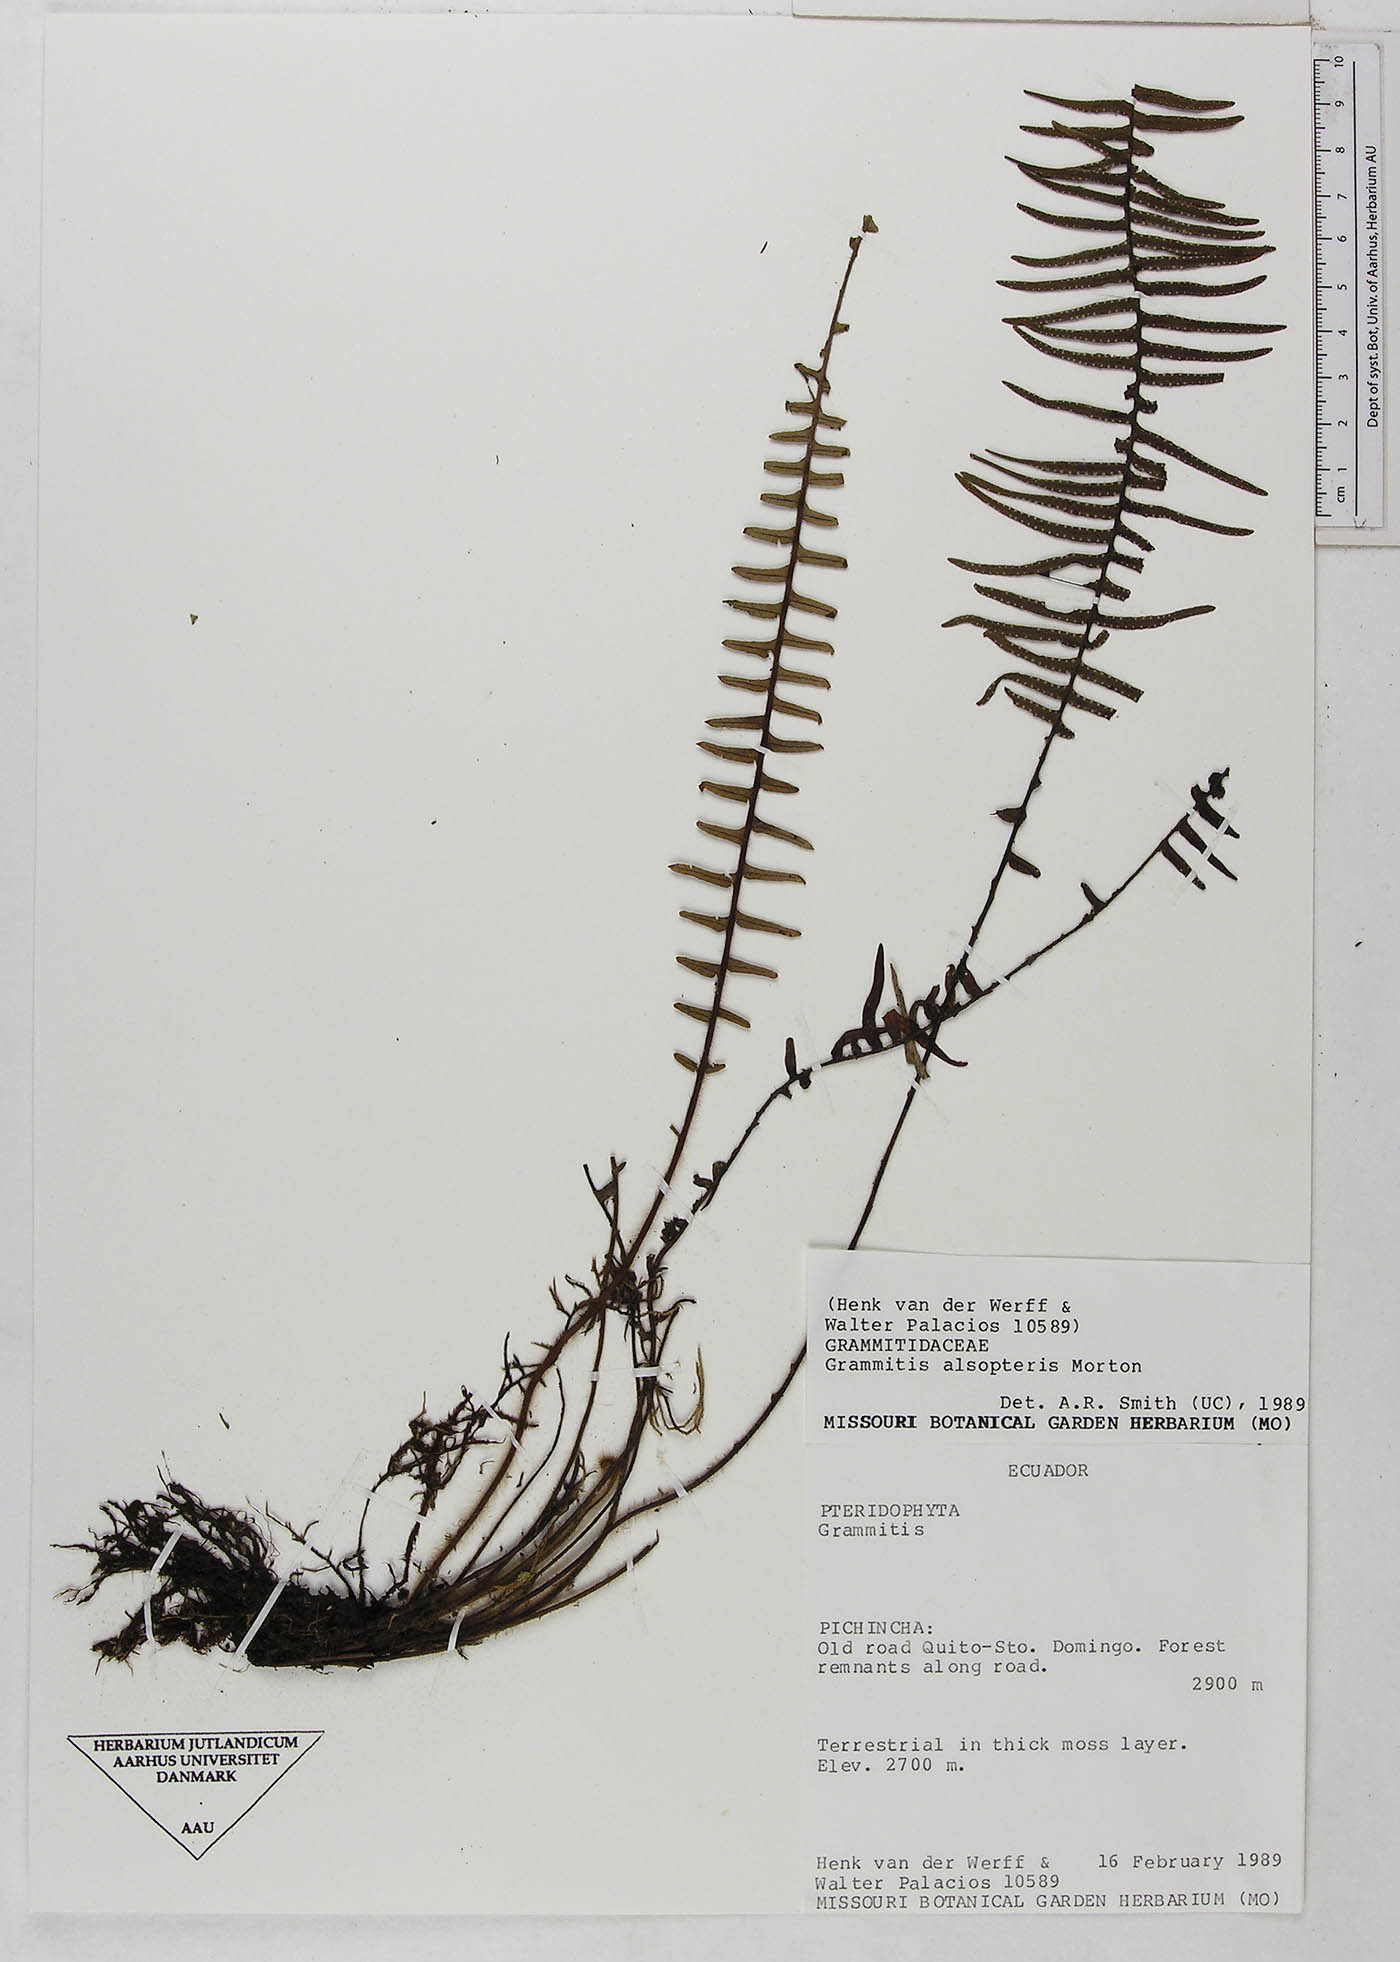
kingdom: Plantae
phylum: Tracheophyta
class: Polypodiopsida
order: Polypodiales
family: Polypodiaceae
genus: Mycopteris
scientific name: Mycopteris alsopteris
